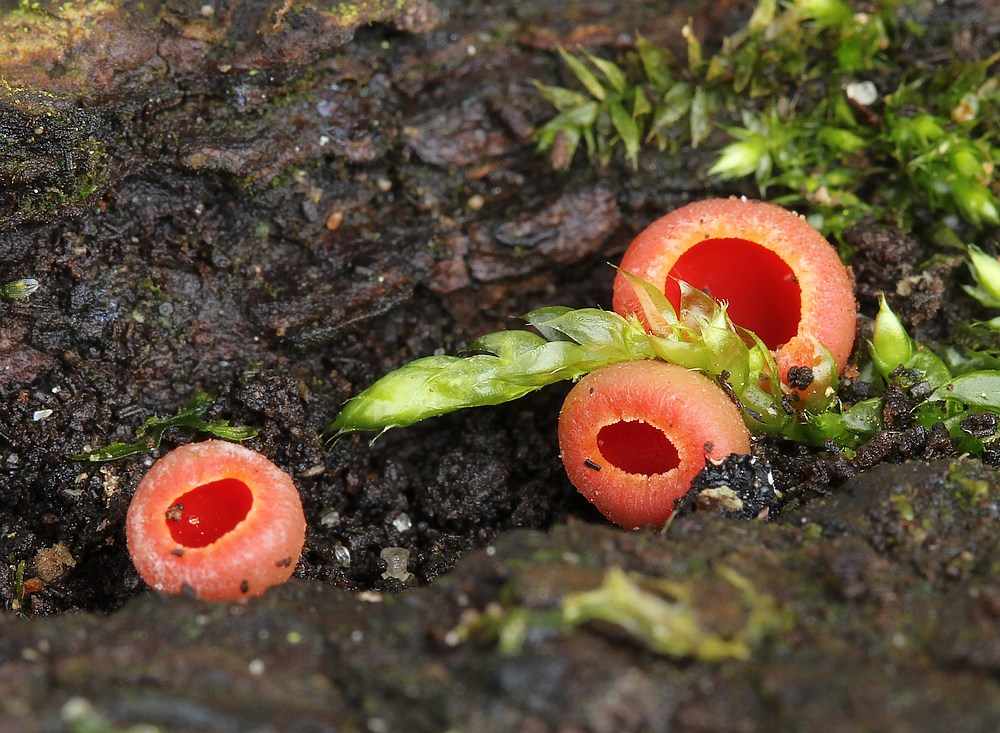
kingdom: Fungi
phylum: Ascomycota
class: Pezizomycetes
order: Pezizales
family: Sarcoscyphaceae
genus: Sarcoscypha
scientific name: Sarcoscypha austriaca
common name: krølhåret pragtbæger
